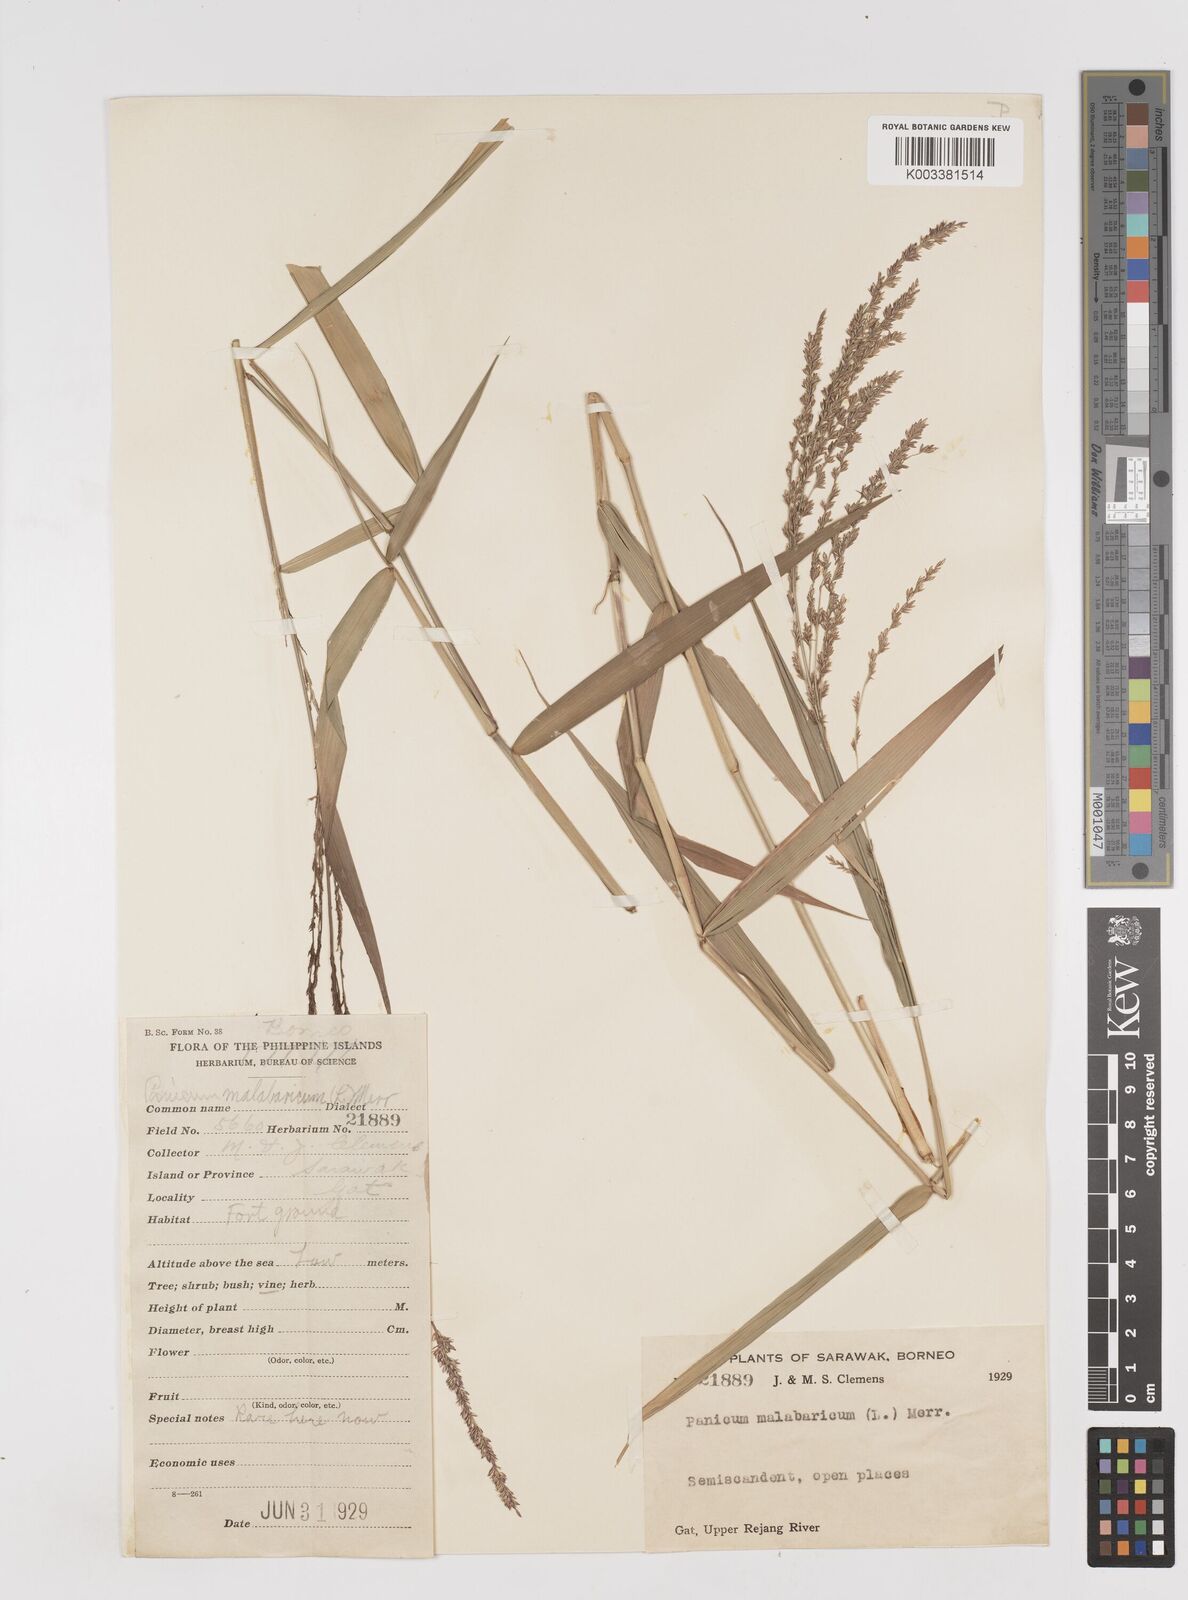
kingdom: Plantae
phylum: Tracheophyta
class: Liliopsida
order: Poales
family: Poaceae
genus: Ottochloa
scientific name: Ottochloa nodosa
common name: Slender-panic grass
